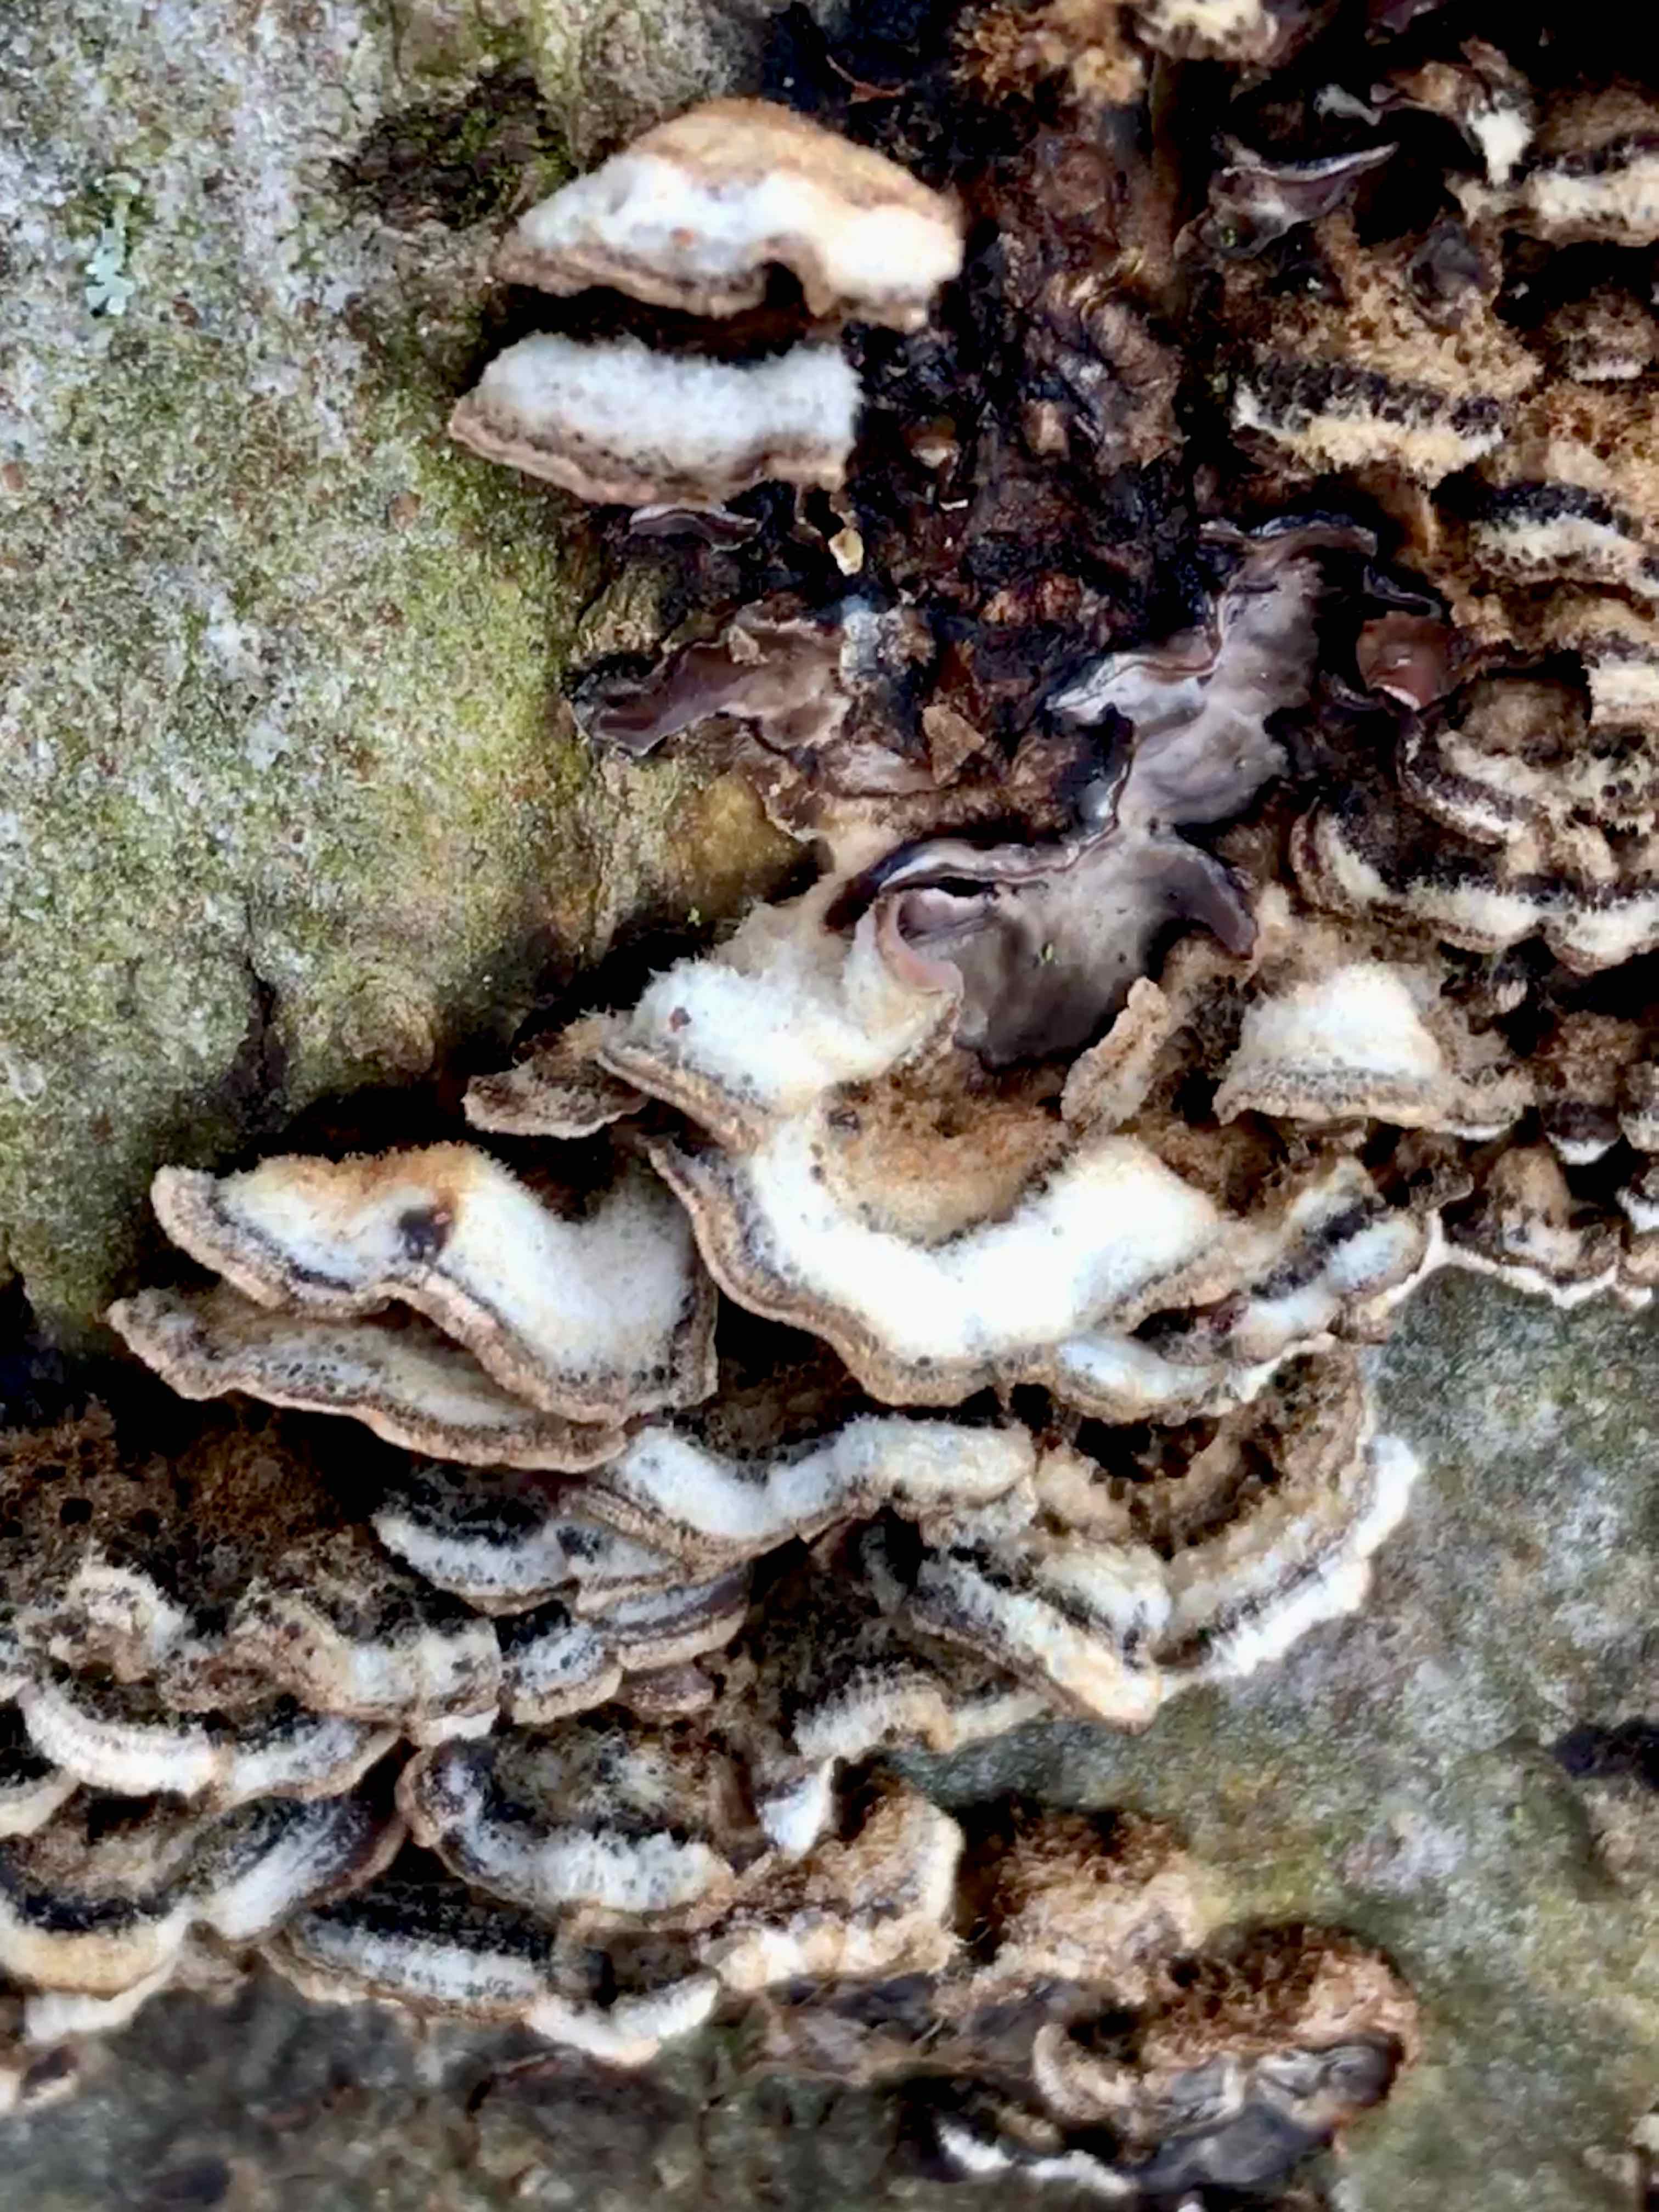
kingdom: Fungi
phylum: Basidiomycota
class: Agaricomycetes
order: Agaricales
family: Cyphellaceae
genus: Chondrostereum
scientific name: Chondrostereum purpureum
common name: purpurlædersvamp
